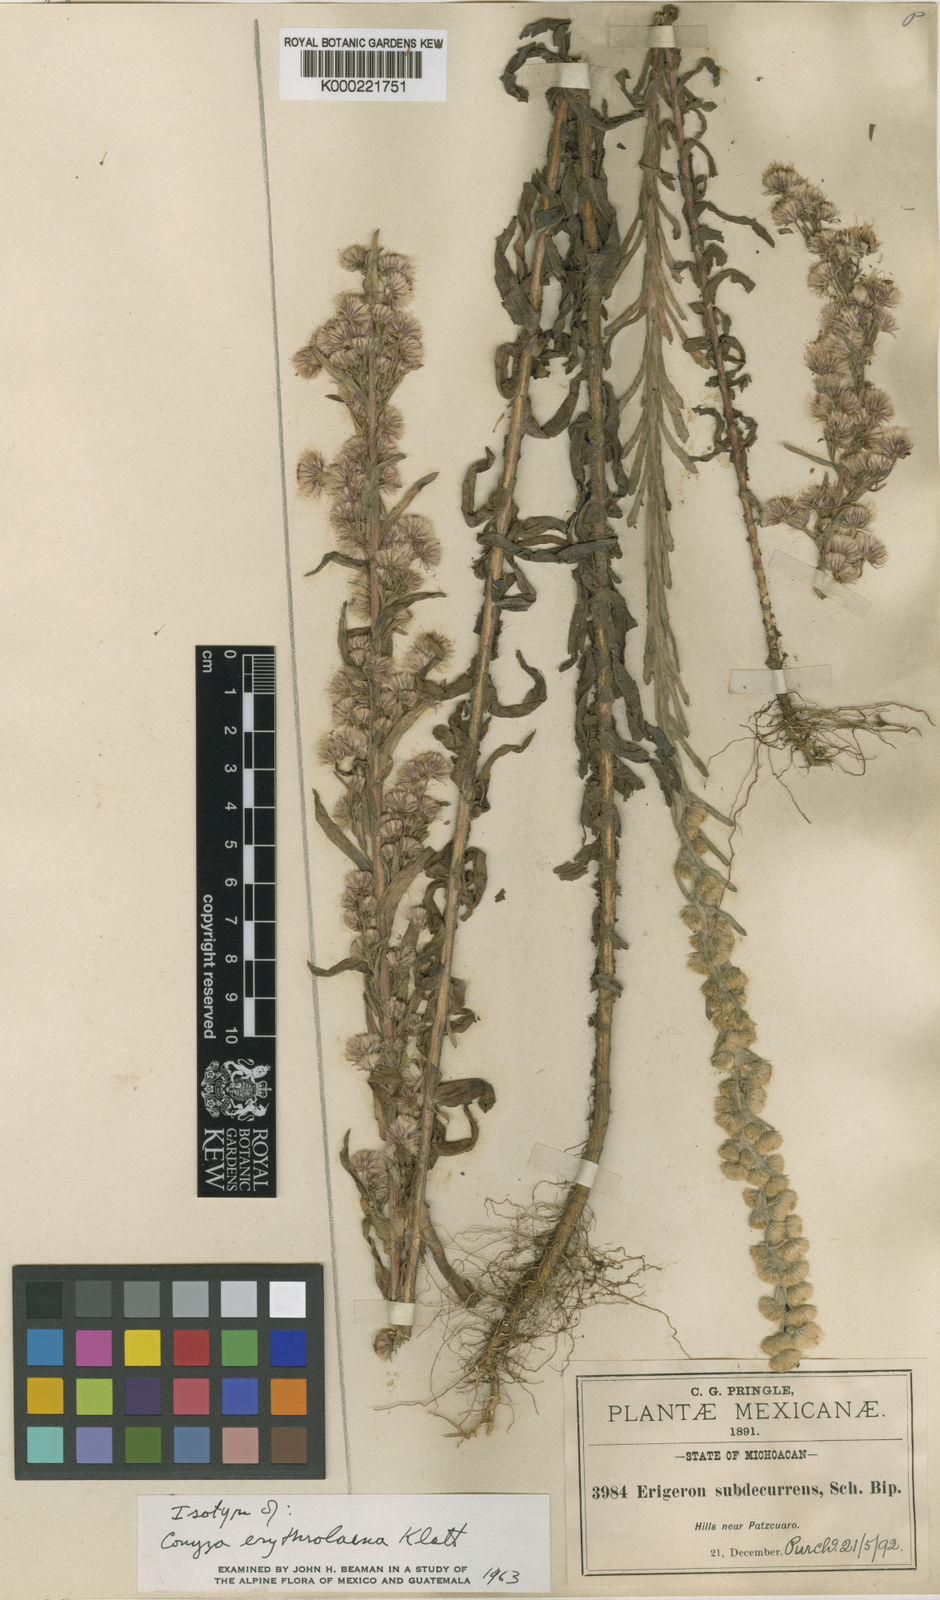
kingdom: Plantae
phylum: Tracheophyta
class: Magnoliopsida
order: Asterales
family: Asteraceae
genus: Laennecia
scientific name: Laennecia schiedeana
